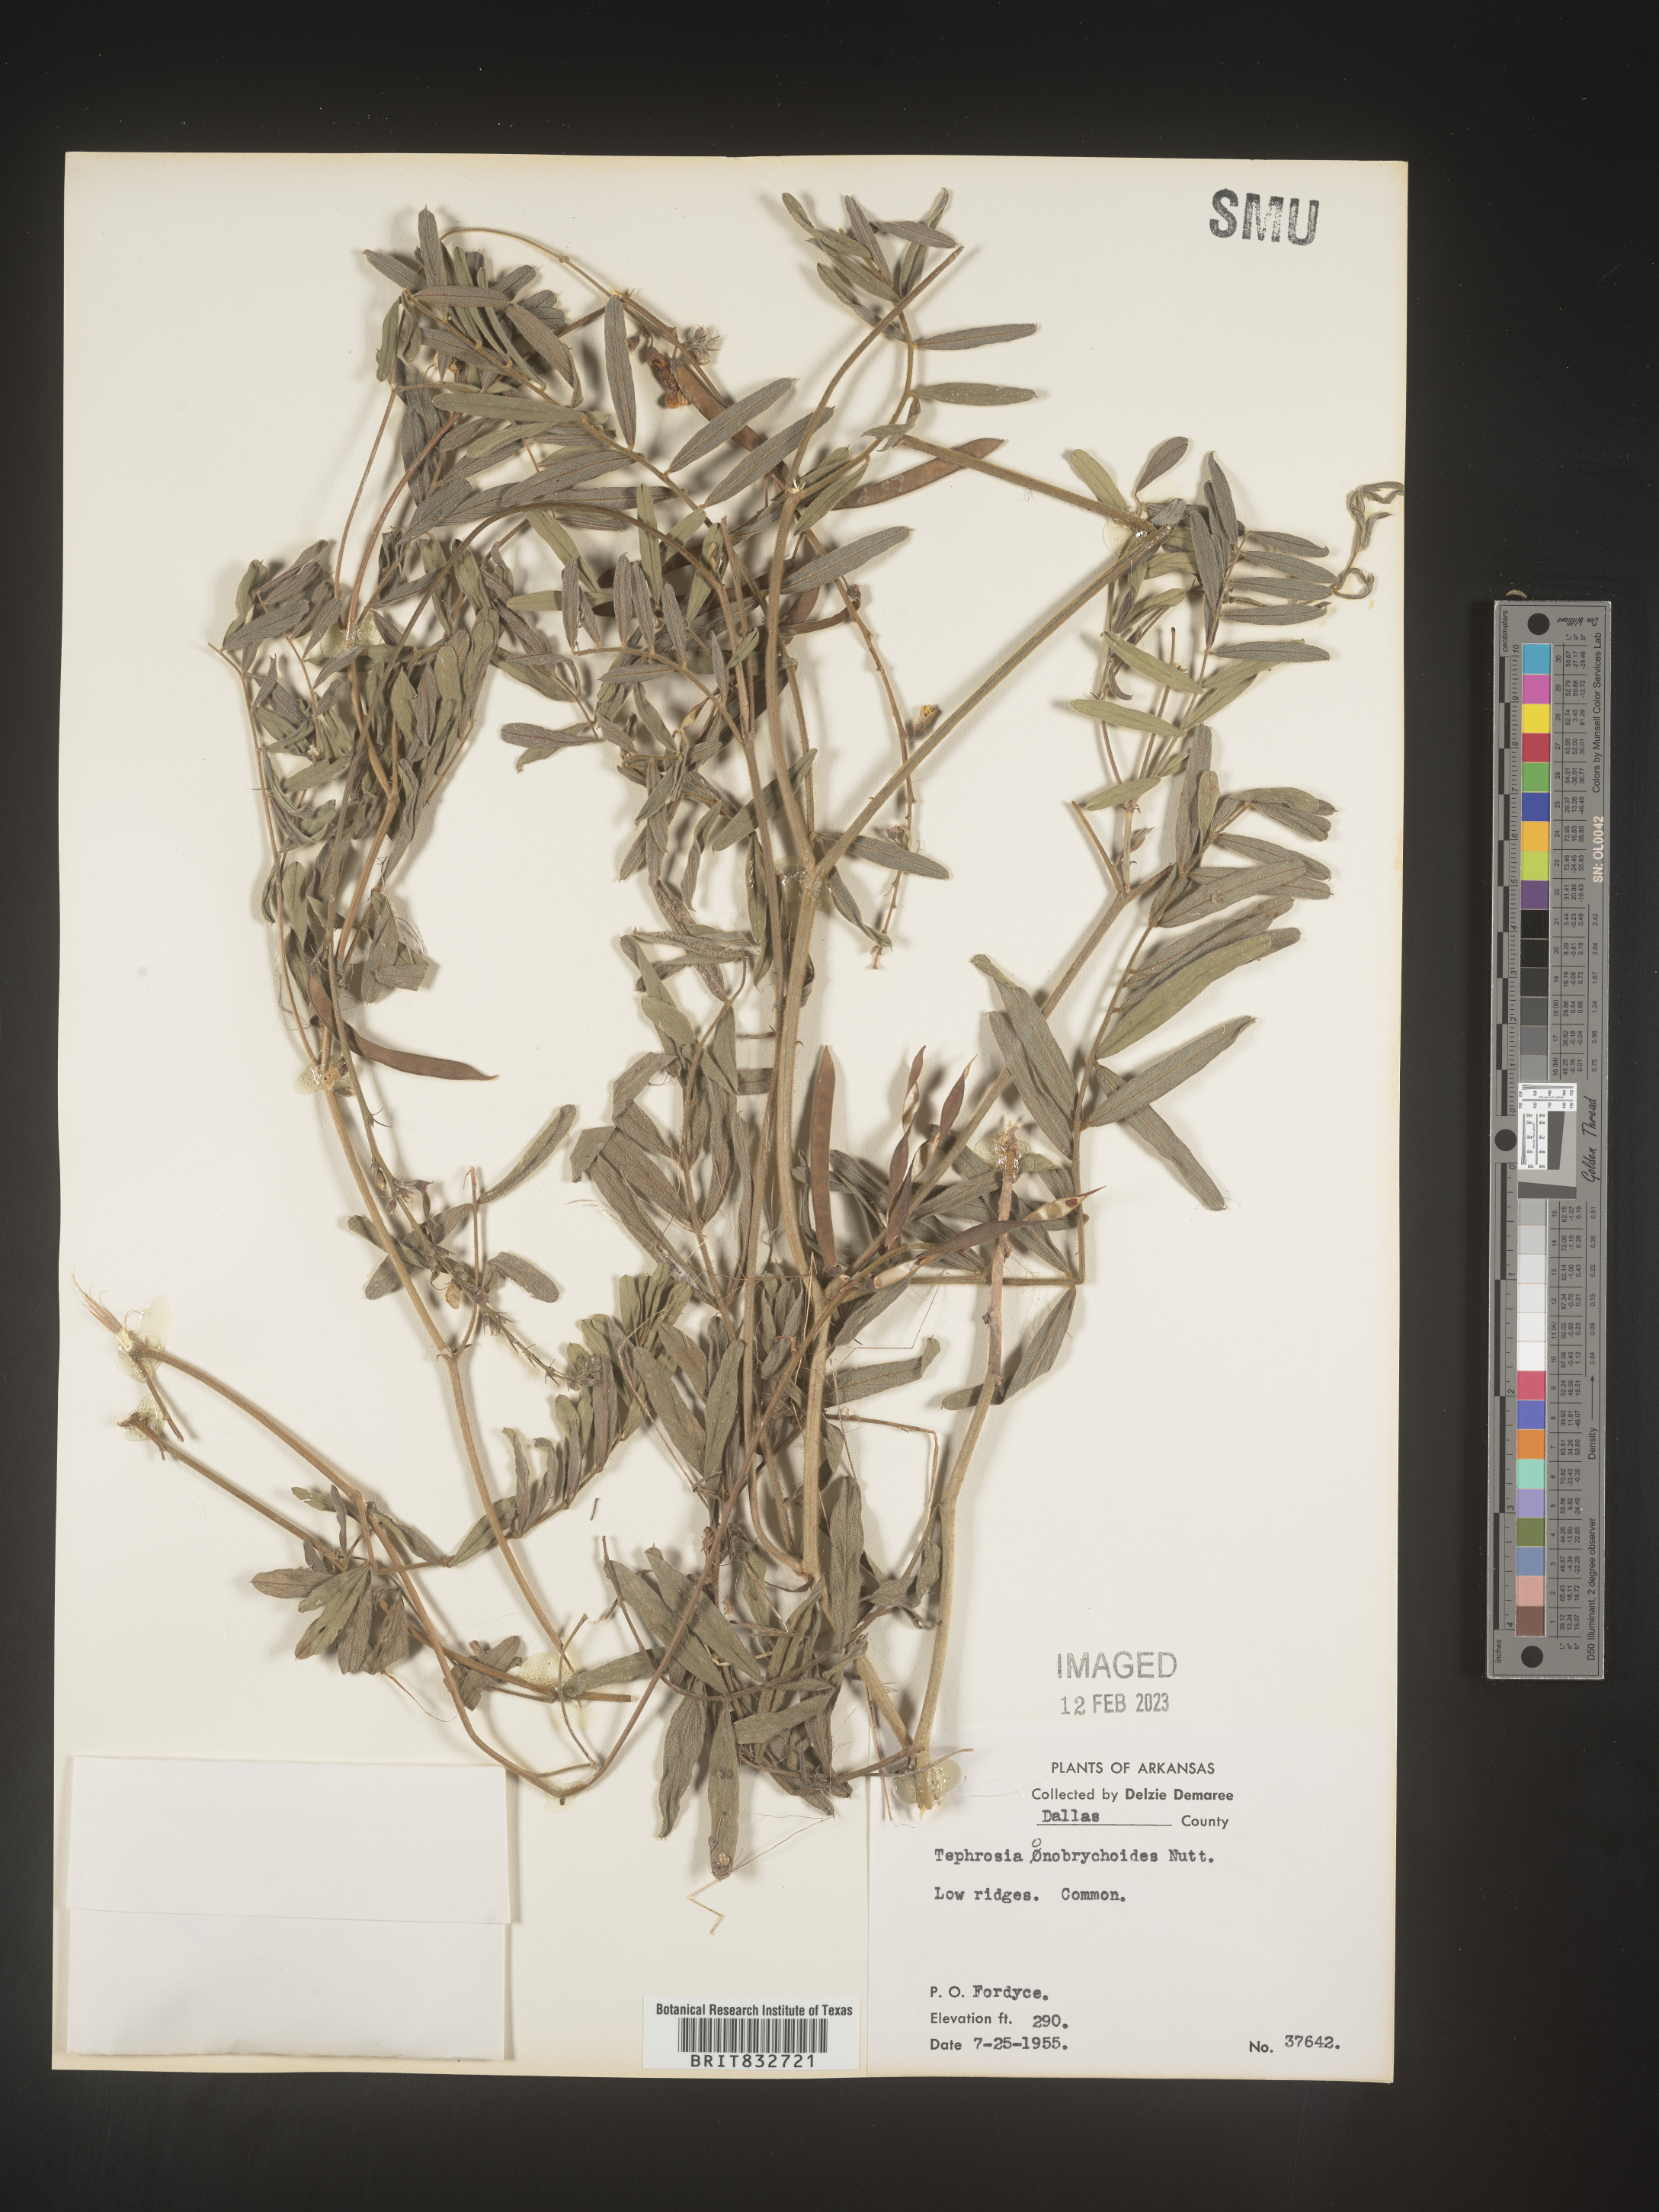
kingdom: Plantae
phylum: Tracheophyta
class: Magnoliopsida
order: Fabales
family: Fabaceae
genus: Tephrosia
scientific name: Tephrosia onobrychoides
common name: Multi-bloom hoary-pea
